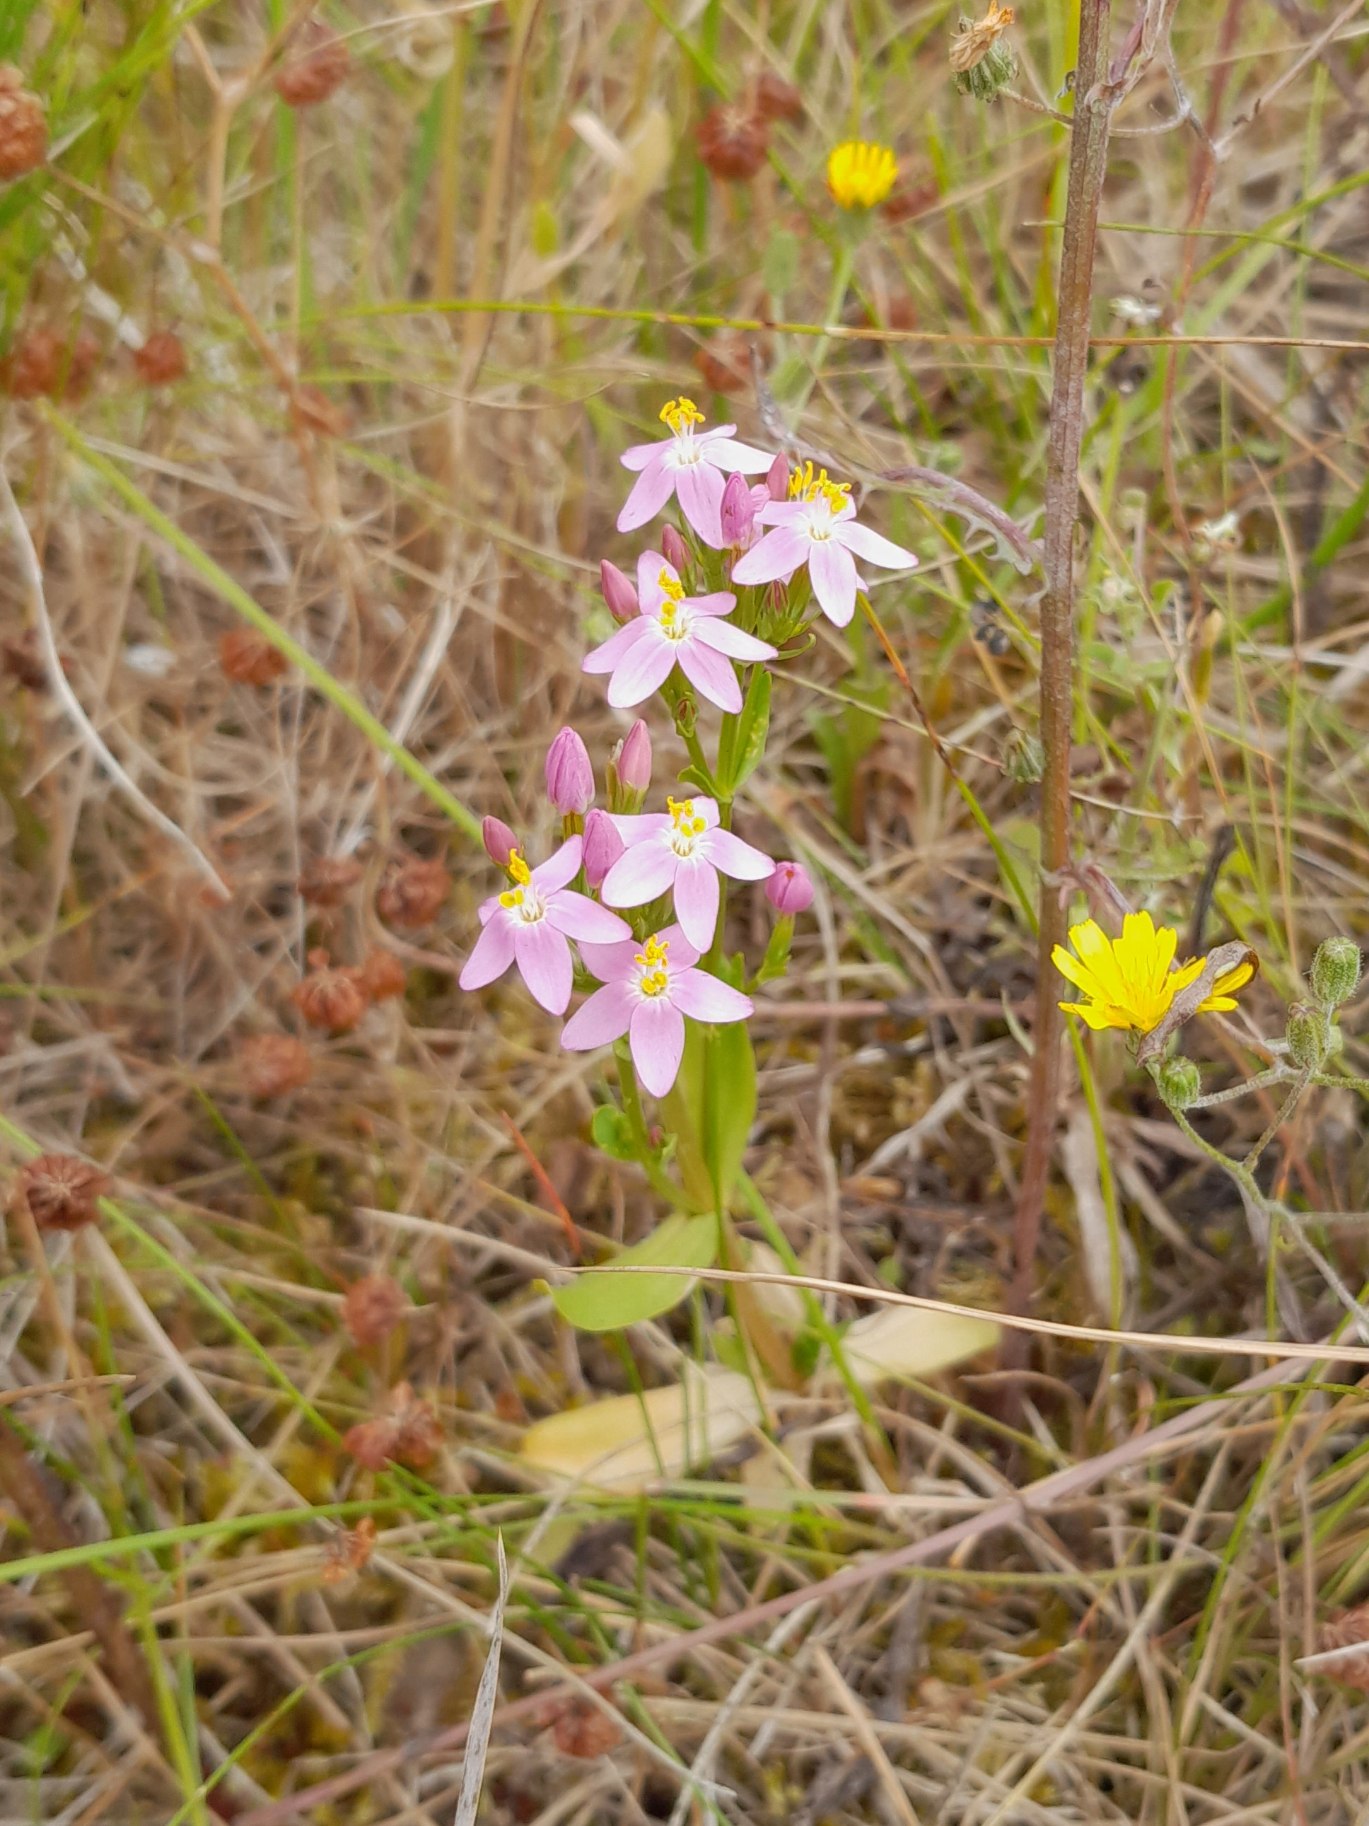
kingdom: Plantae
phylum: Tracheophyta
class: Magnoliopsida
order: Gentianales
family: Gentianaceae
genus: Centaurium
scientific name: Centaurium erythraea
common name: Mark-tusindgylden
